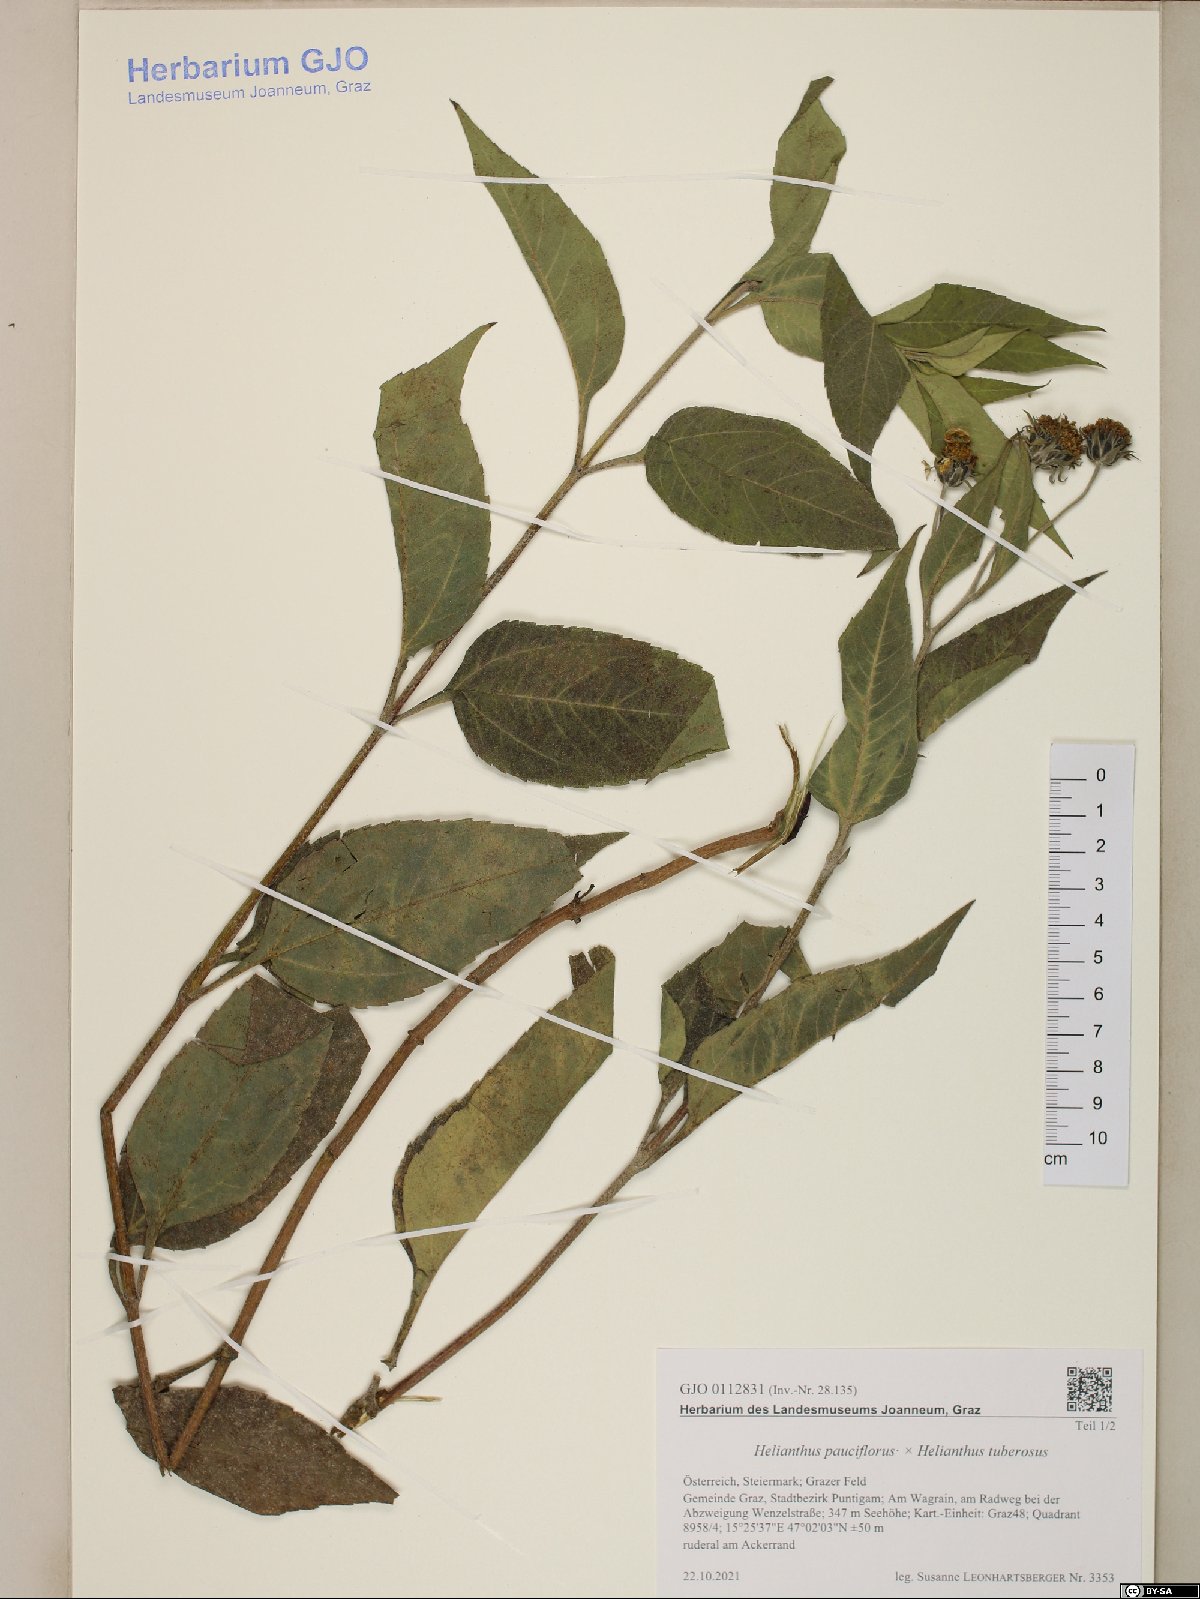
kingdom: Plantae
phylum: Tracheophyta
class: Magnoliopsida
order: Asterales
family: Asteraceae
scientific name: Asteraceae
